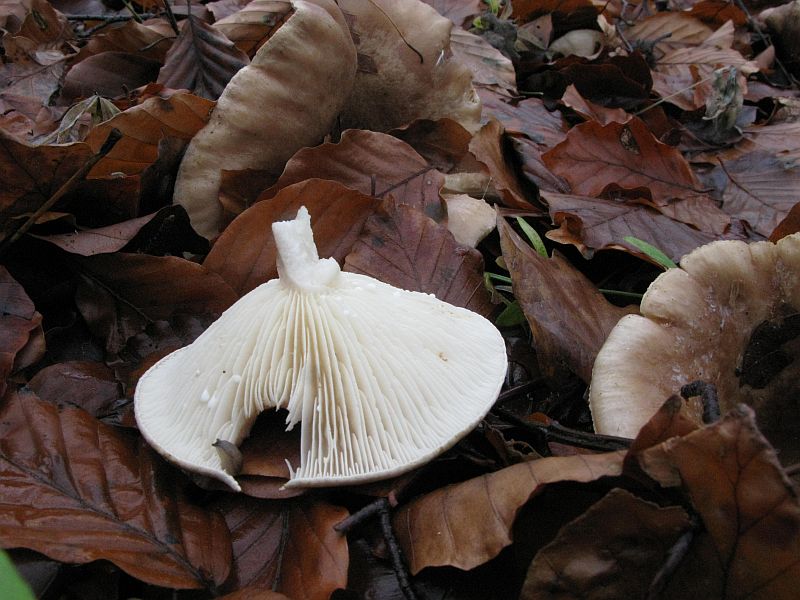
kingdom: Fungi
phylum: Basidiomycota
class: Agaricomycetes
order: Russulales
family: Russulaceae
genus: Lactarius
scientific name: Lactarius pallidus
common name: bleg mælkehat
